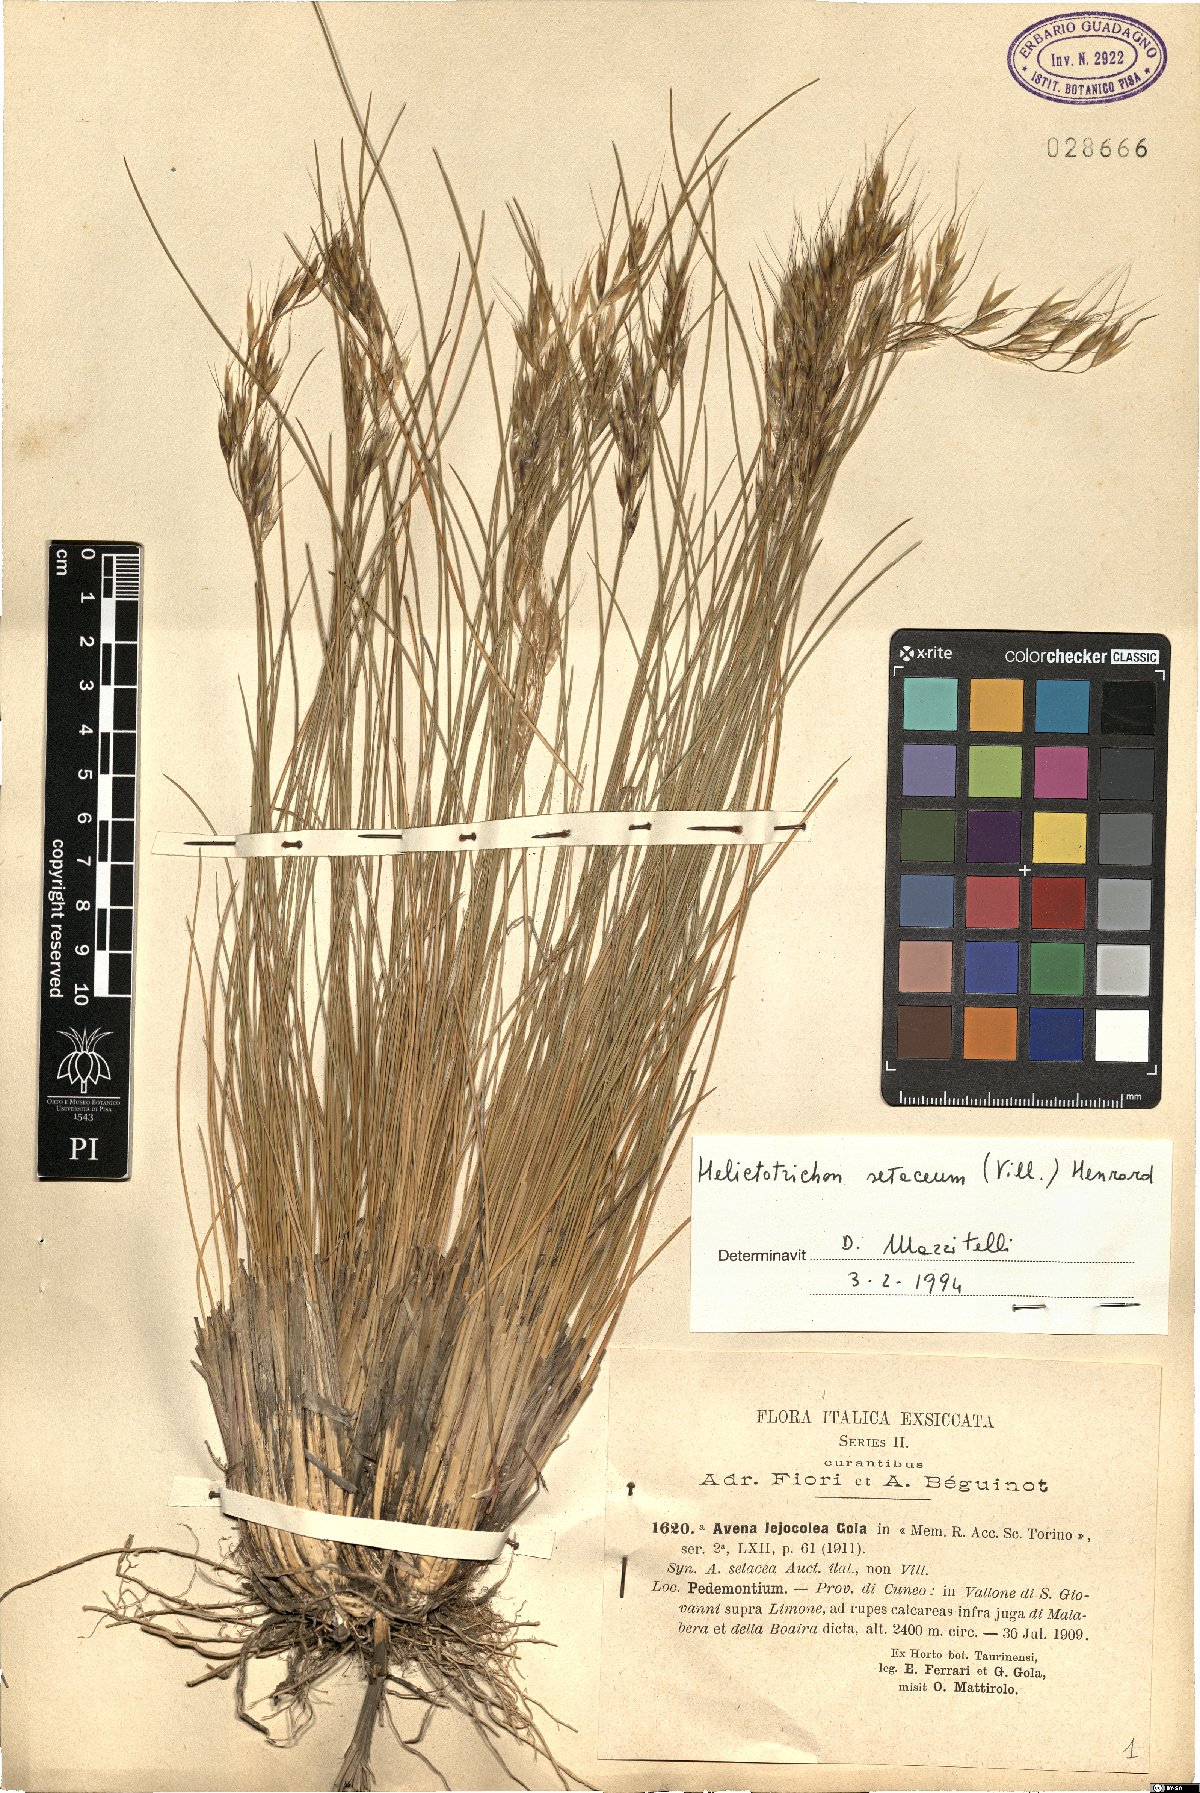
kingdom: Plantae
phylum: Tracheophyta
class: Liliopsida
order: Poales
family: Poaceae
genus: Helictotrichon
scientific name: Helictotrichon setaceum
